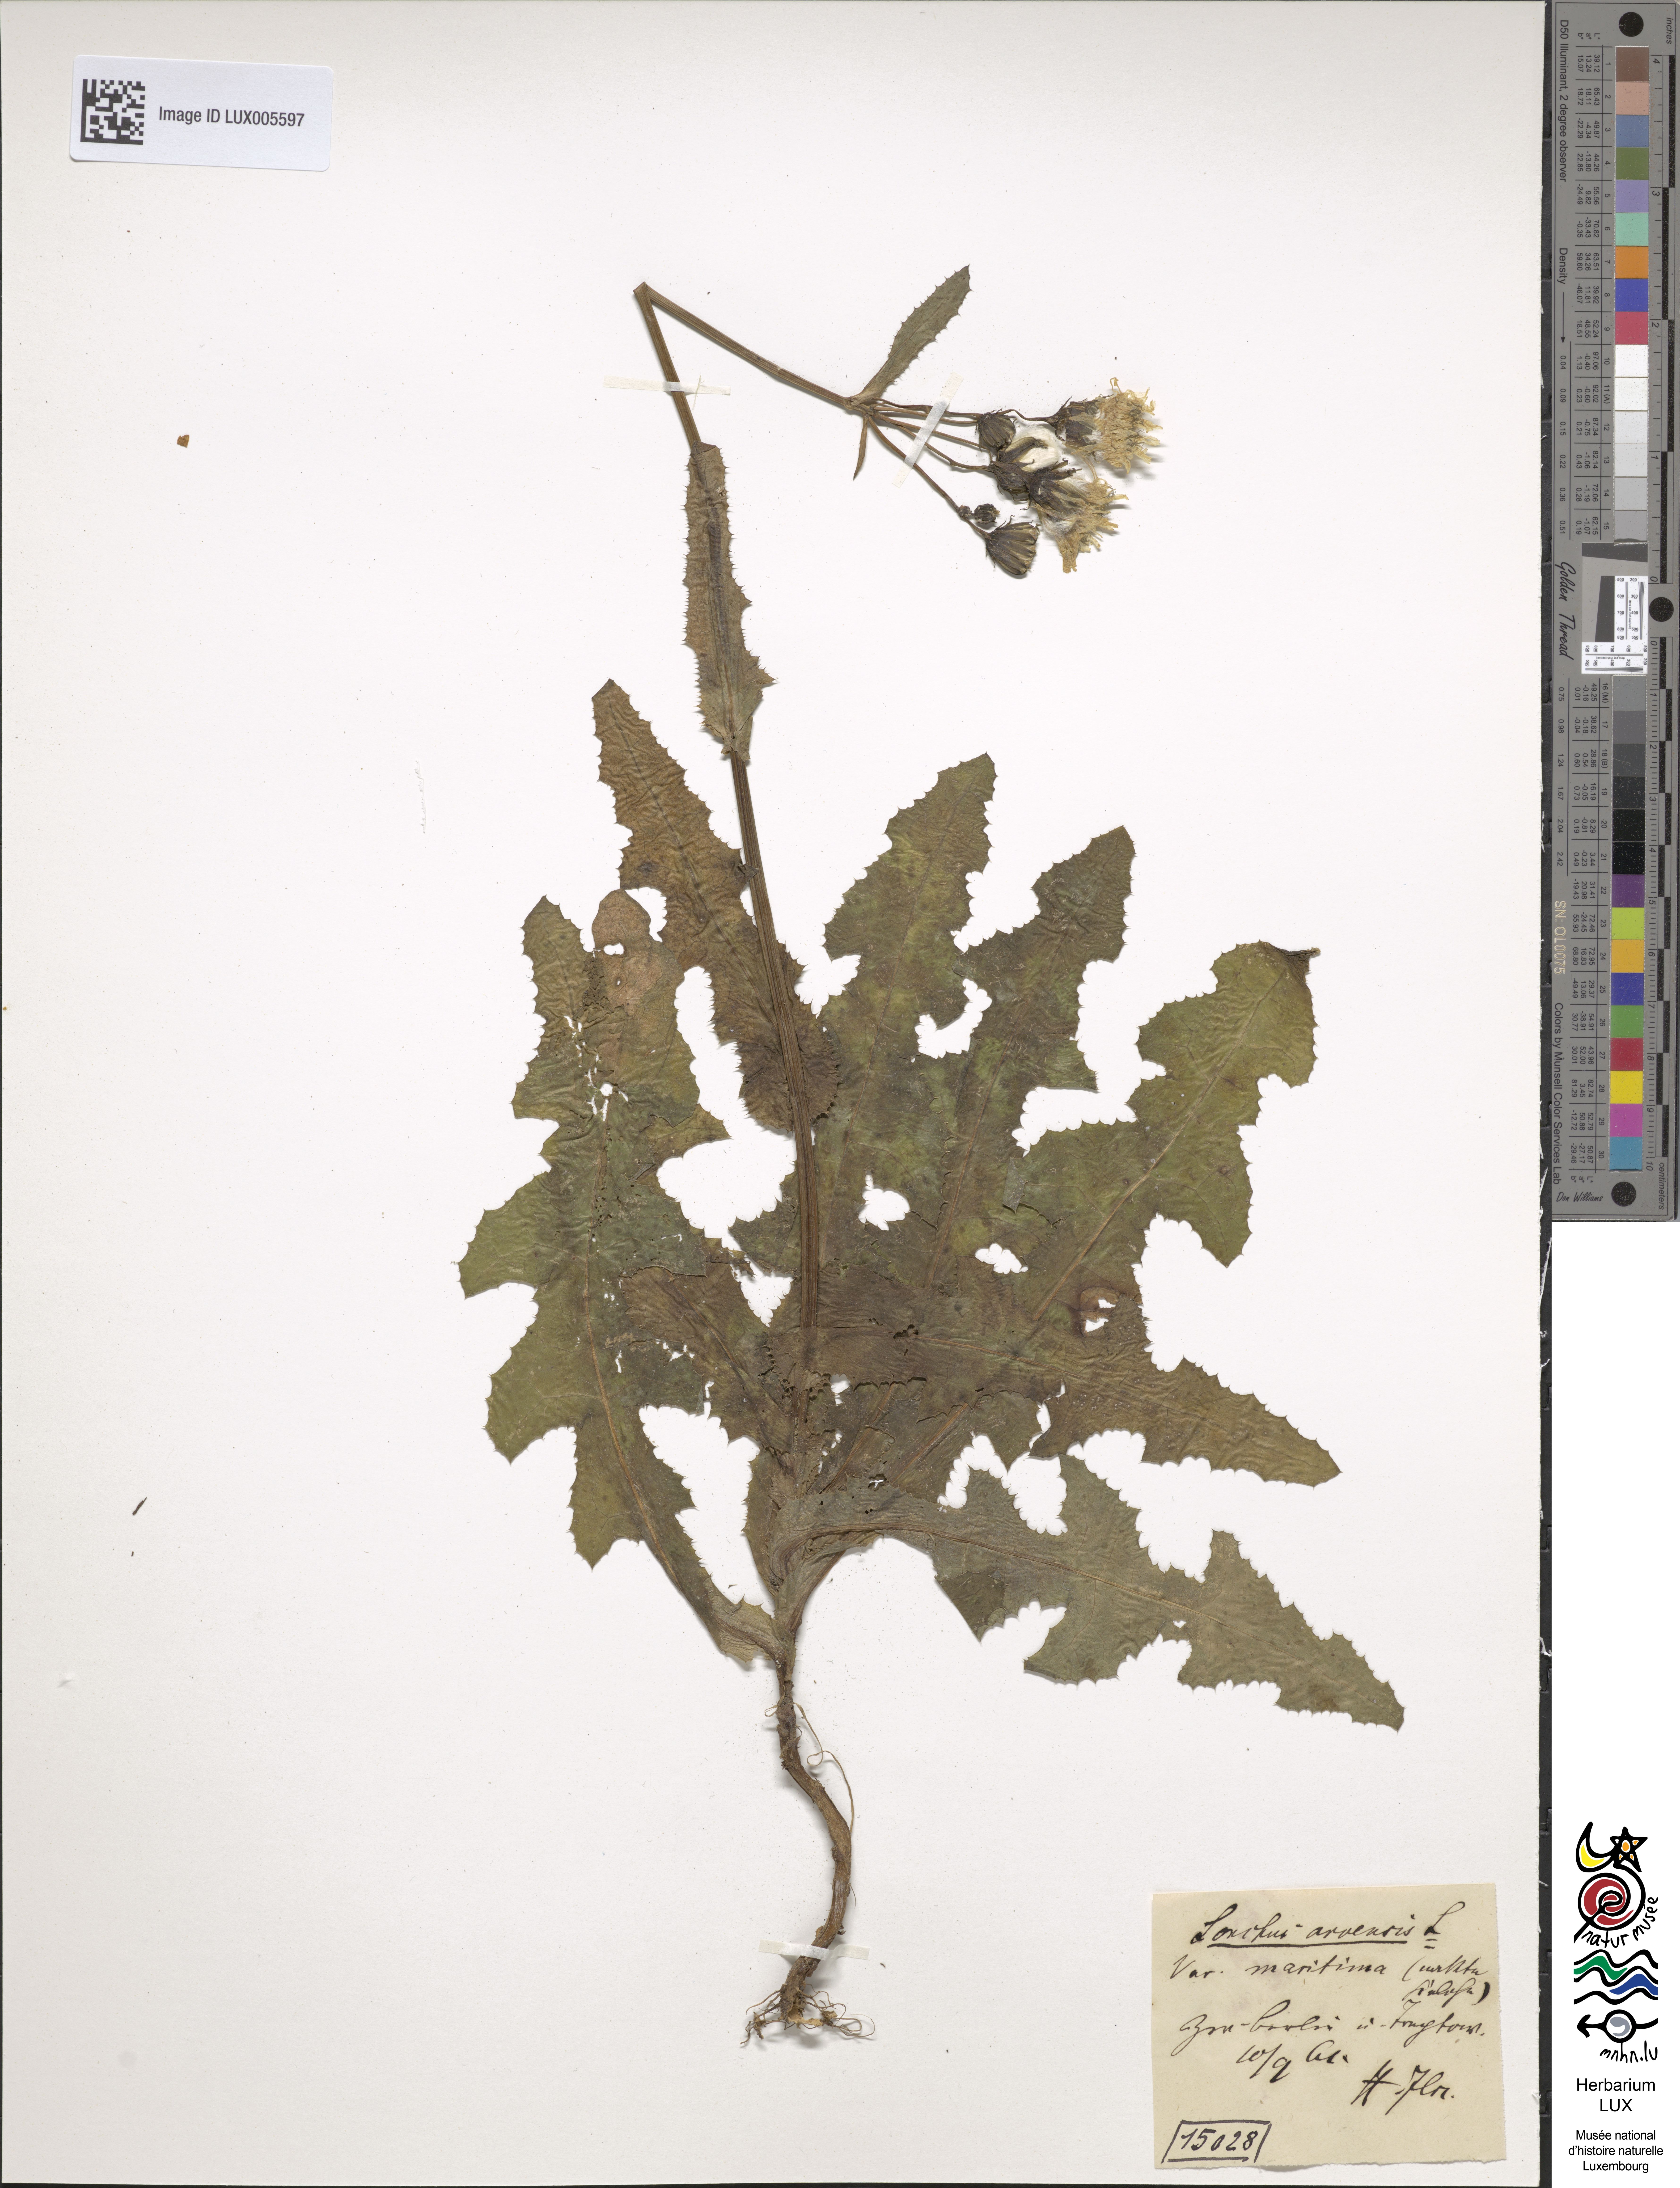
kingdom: Plantae
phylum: Tracheophyta
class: Magnoliopsida
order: Asterales
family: Asteraceae
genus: Sonchus
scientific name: Sonchus maritimus
